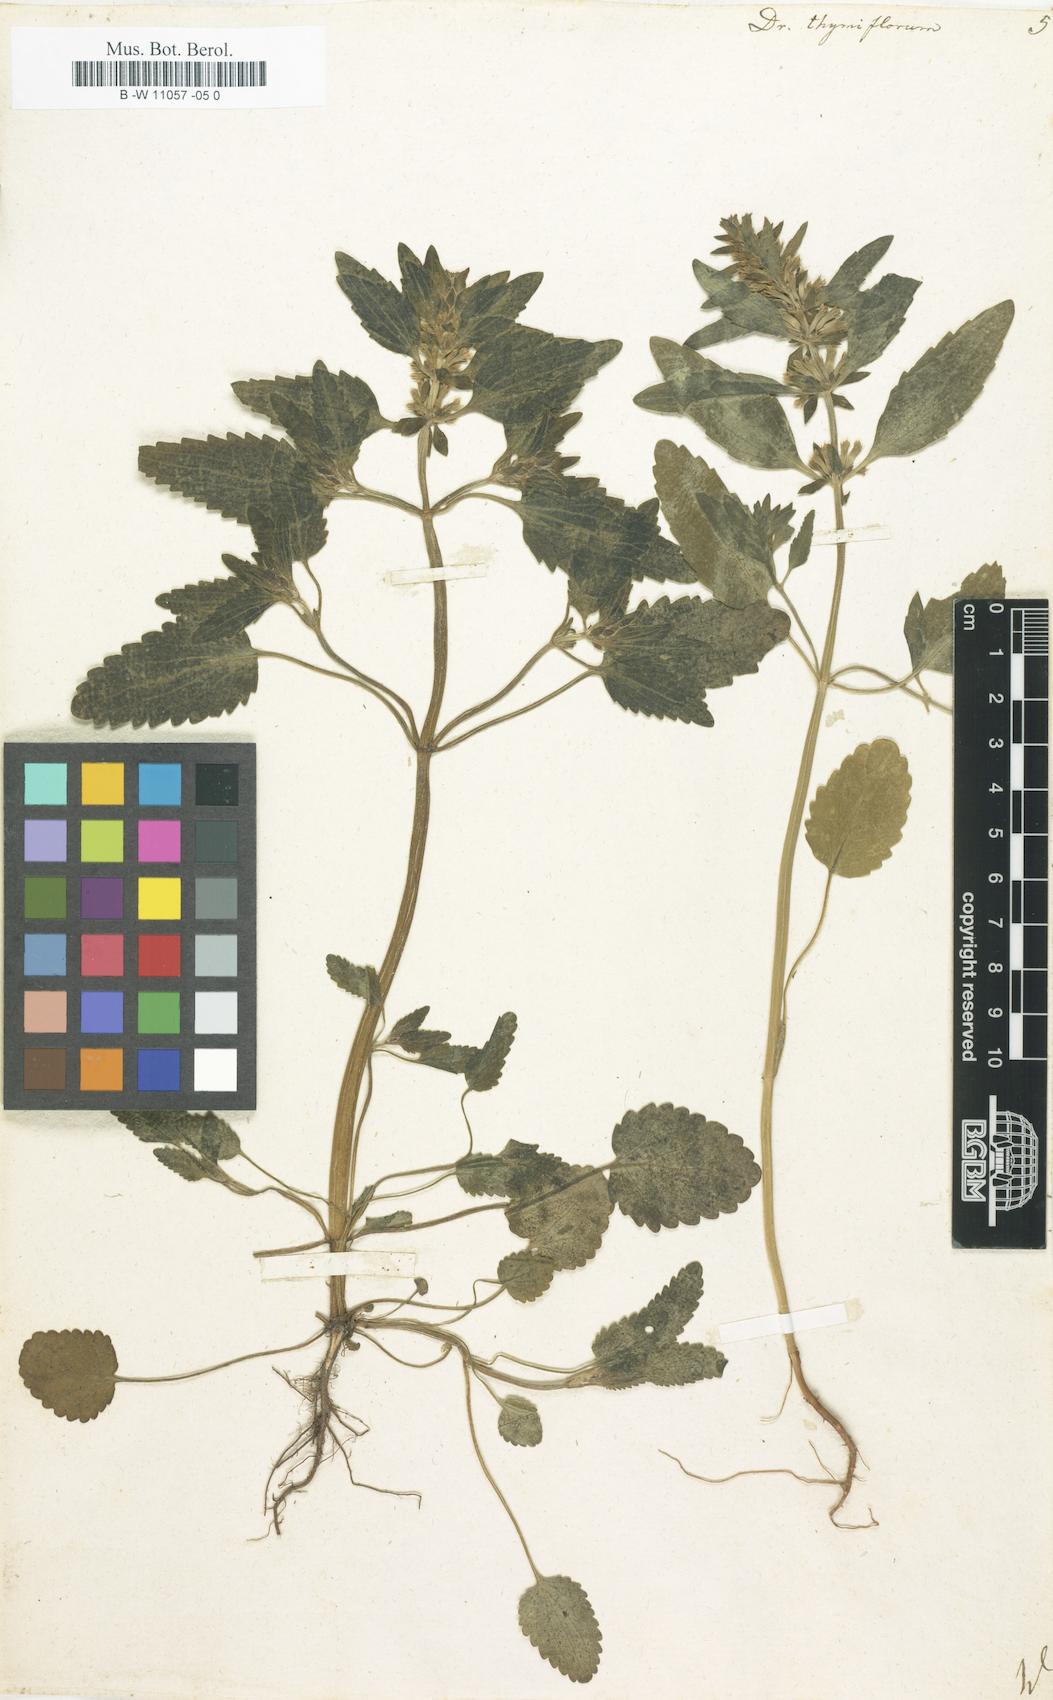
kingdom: Plantae
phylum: Tracheophyta
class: Magnoliopsida
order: Lamiales
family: Lamiaceae
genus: Dracocephalum
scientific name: Dracocephalum thymiflorum
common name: Thymeleaf dragonhead
